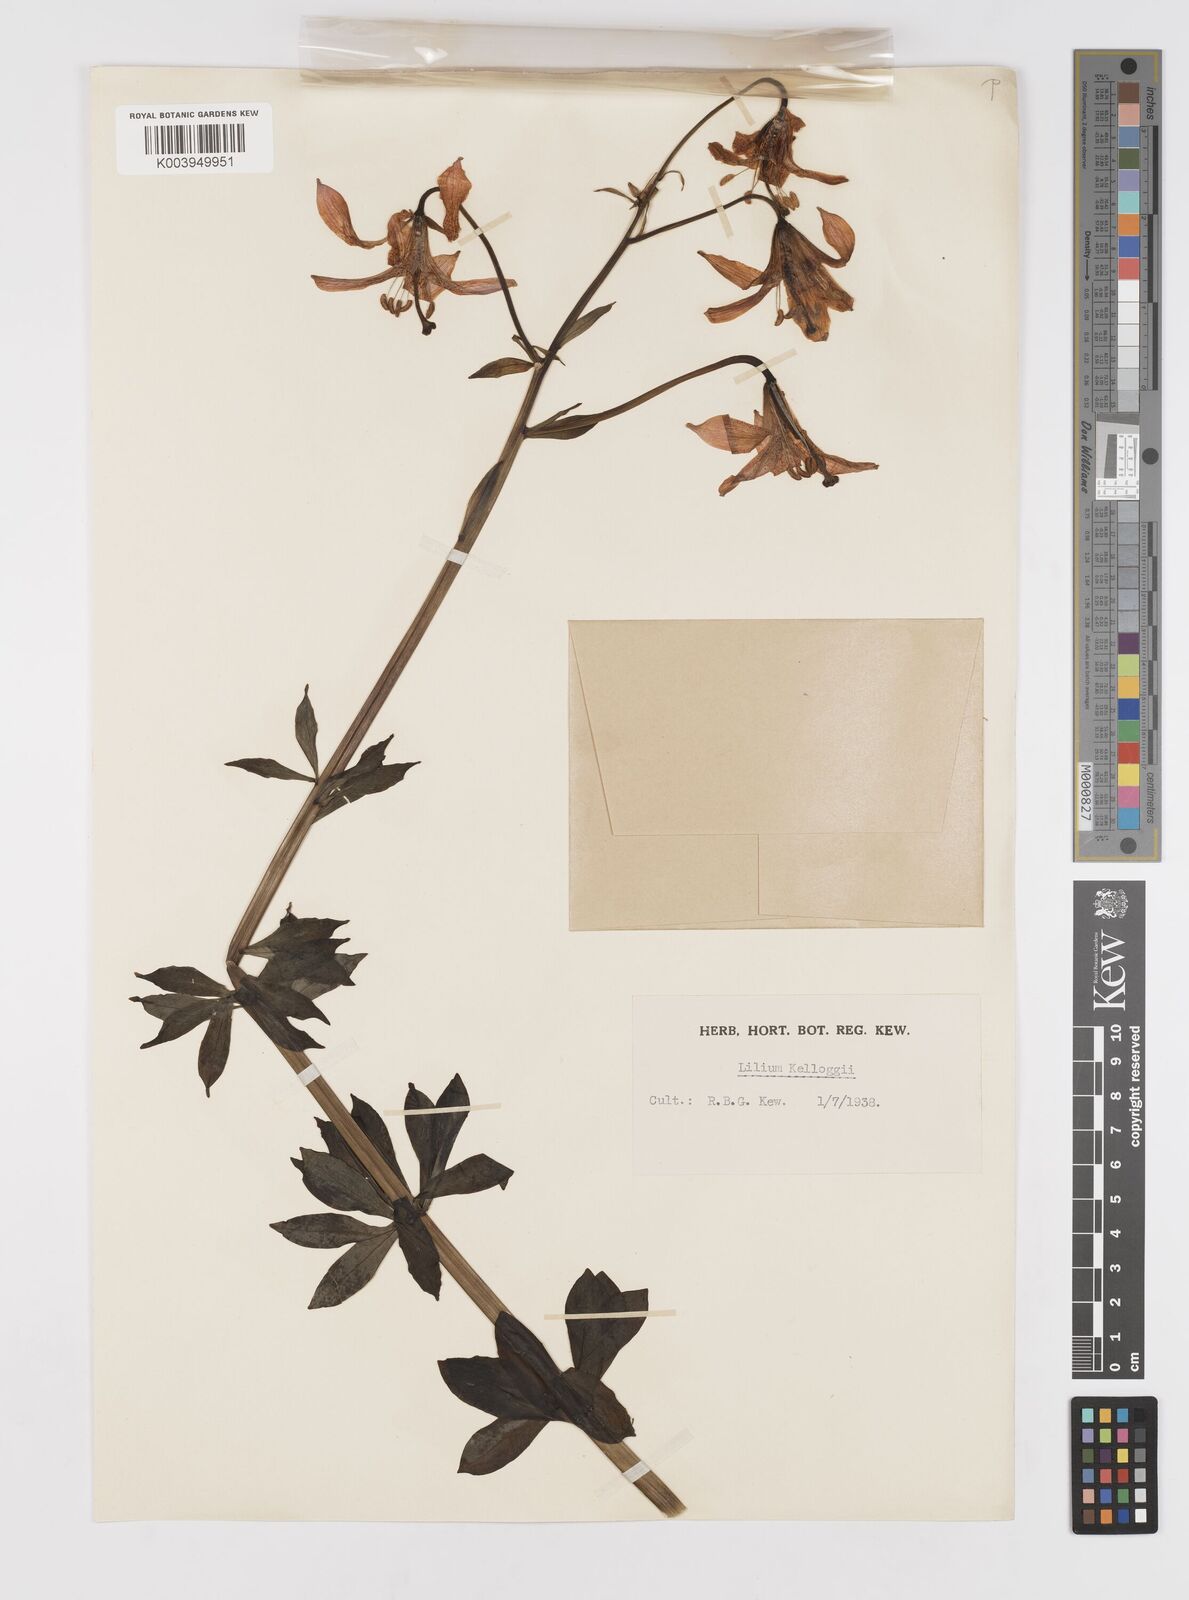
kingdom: Plantae
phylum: Tracheophyta
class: Liliopsida
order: Liliales
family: Liliaceae
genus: Lilium
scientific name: Lilium kelloggii
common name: Kellogg's lily
